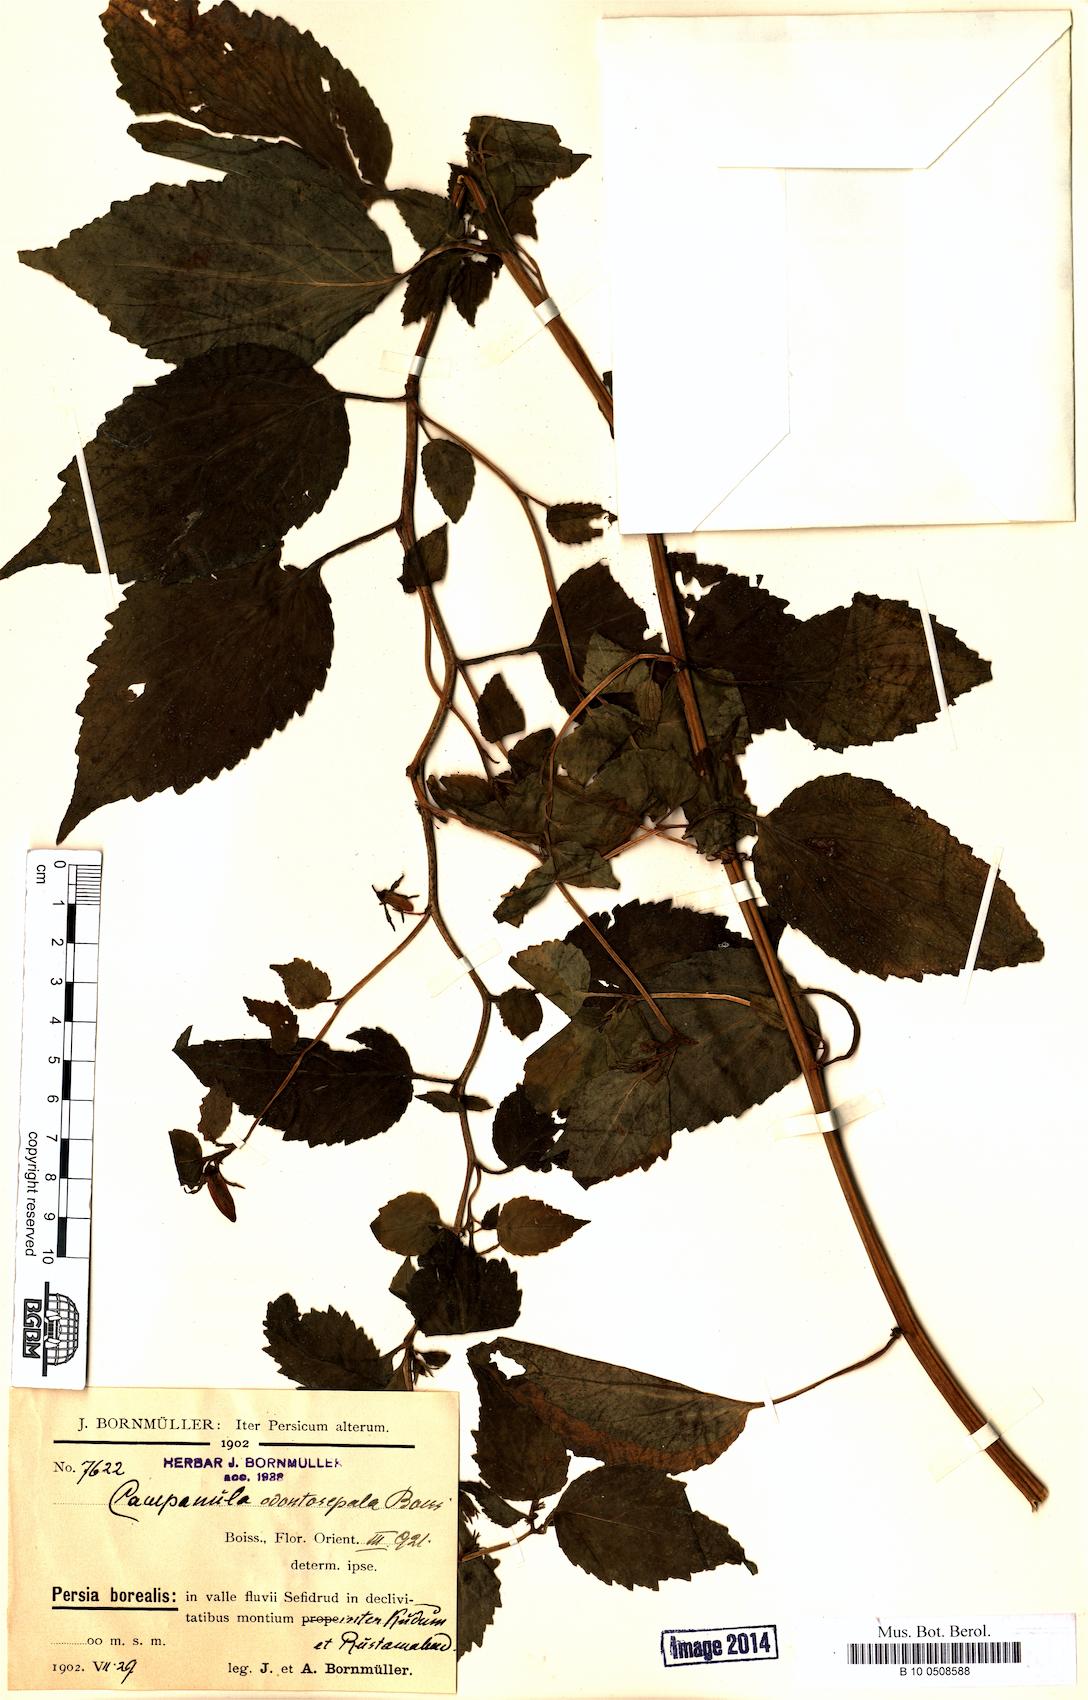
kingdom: Plantae
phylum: Tracheophyta
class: Magnoliopsida
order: Asterales
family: Campanulaceae
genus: Campanula
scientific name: Campanula odontosepala
